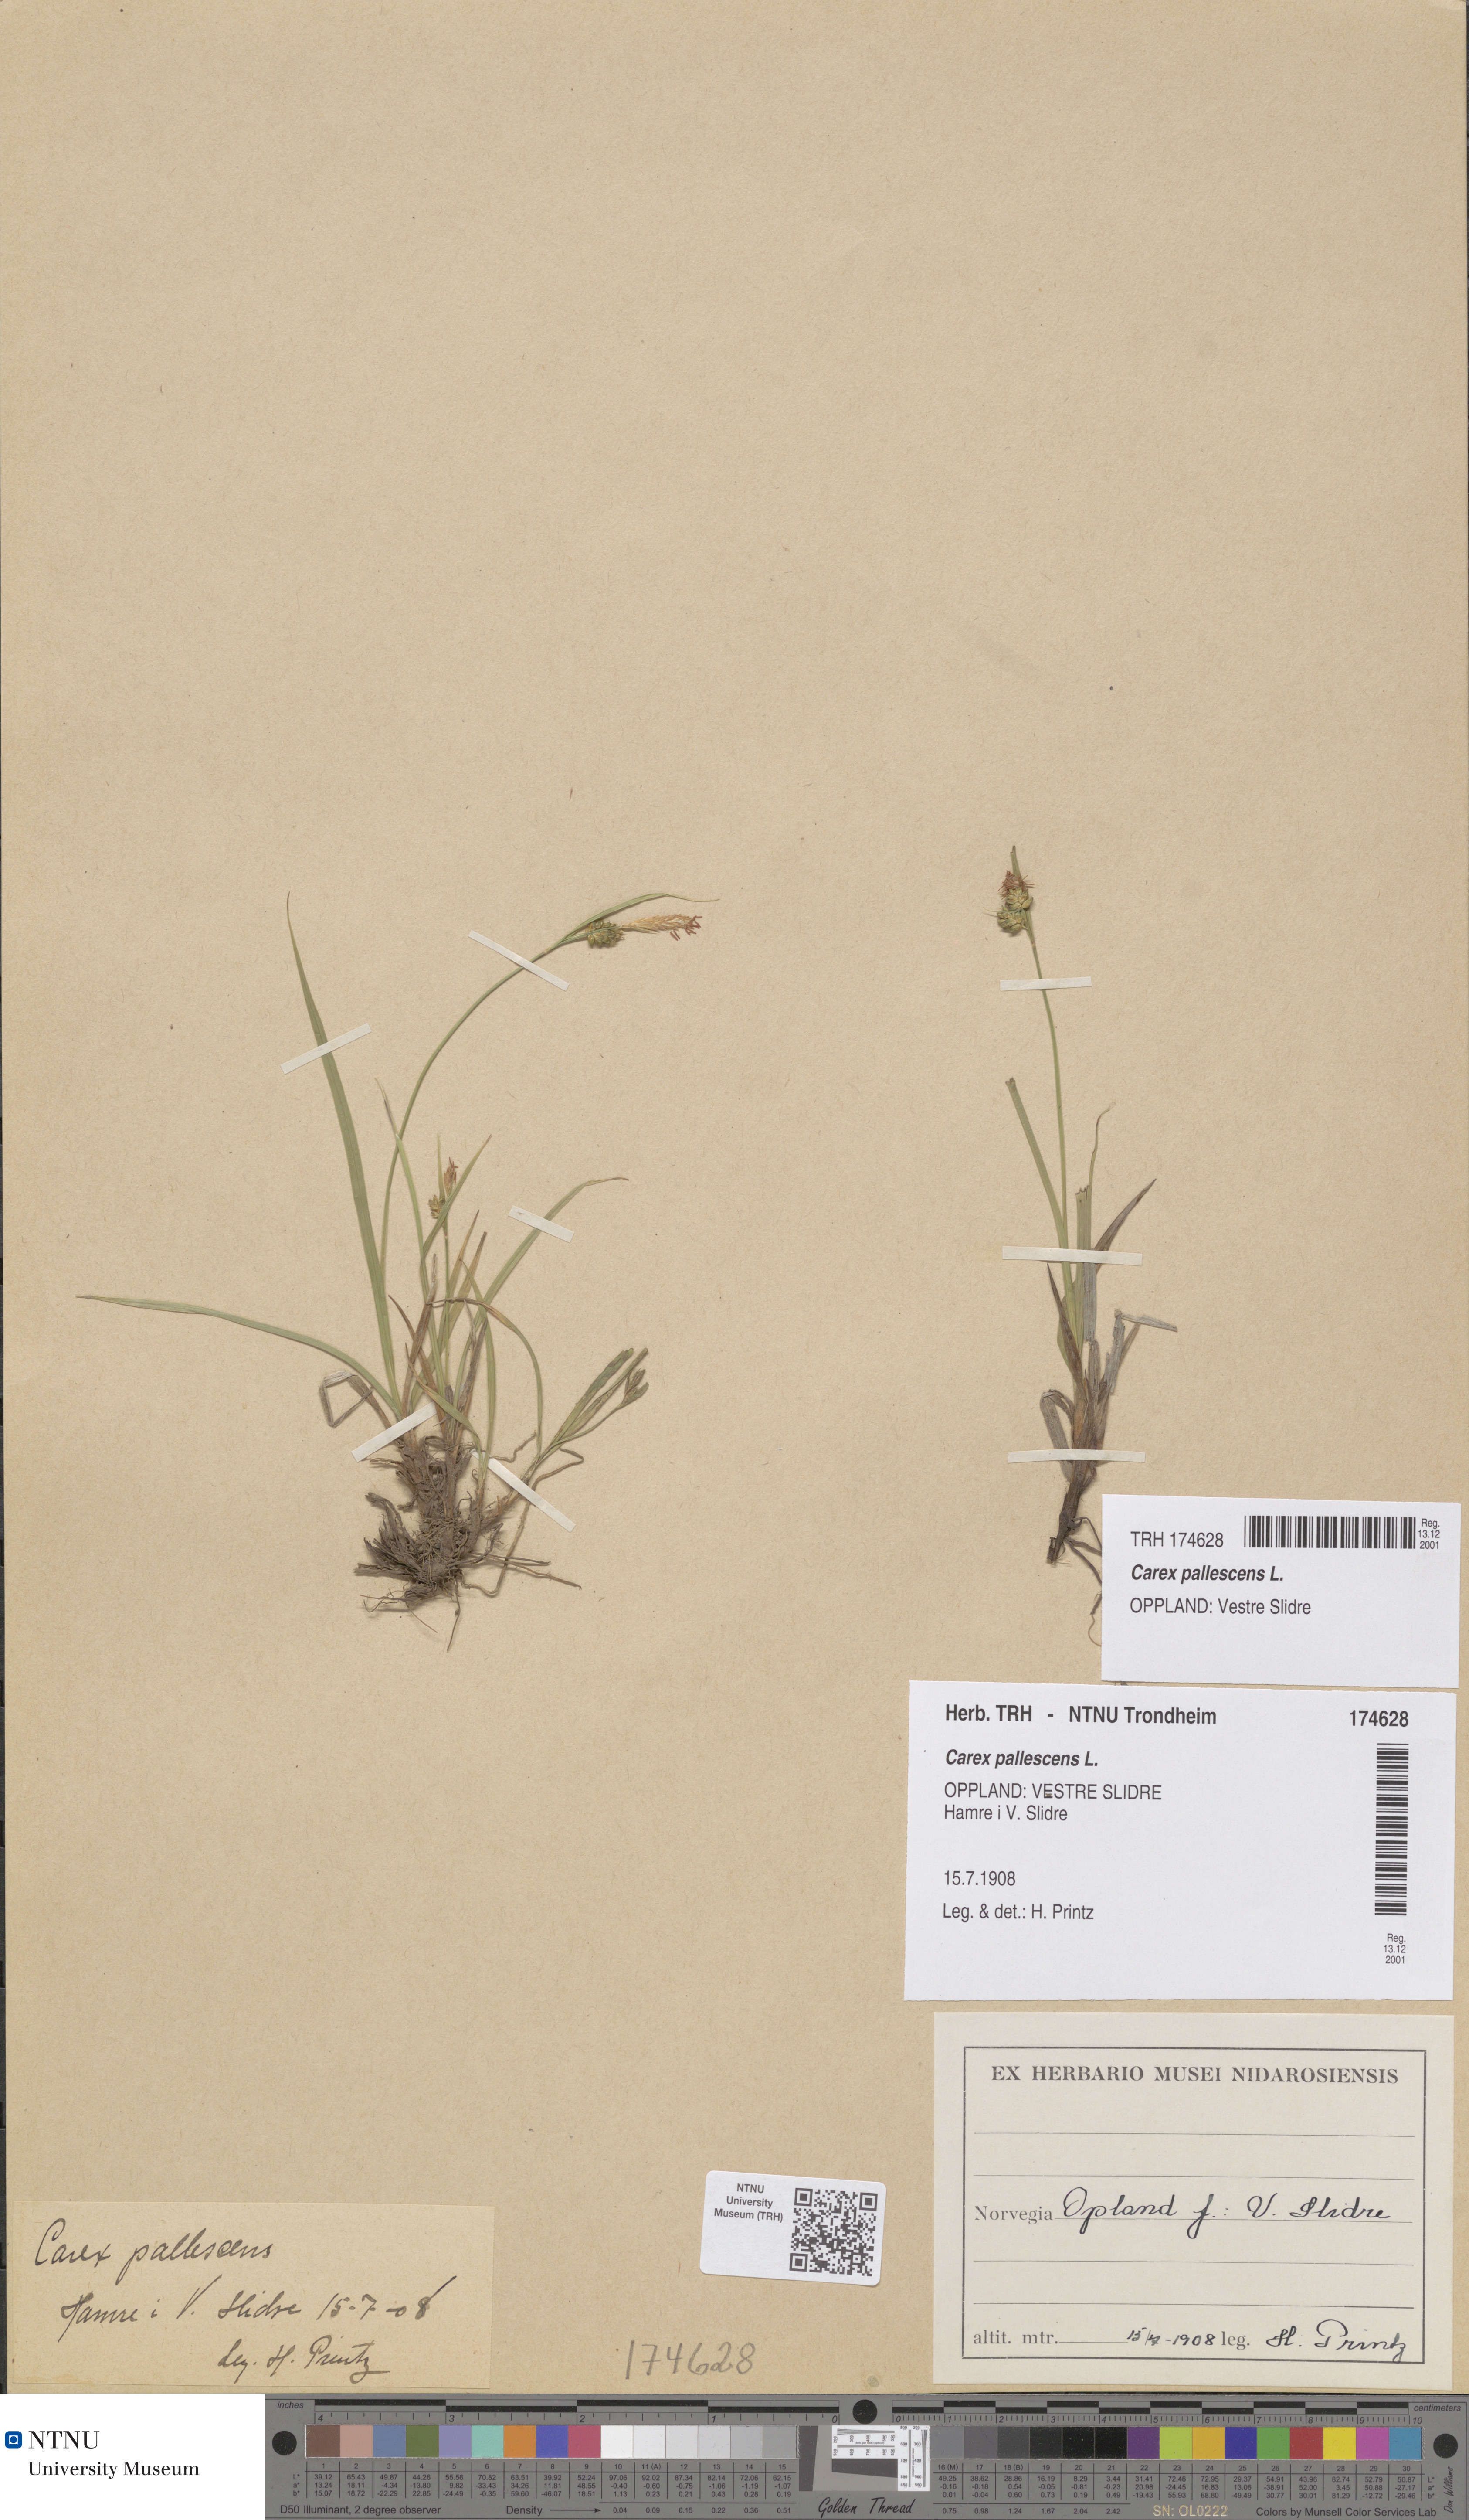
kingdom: Plantae
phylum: Tracheophyta
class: Liliopsida
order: Poales
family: Cyperaceae
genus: Carex
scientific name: Carex pallescens
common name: Pale sedge
